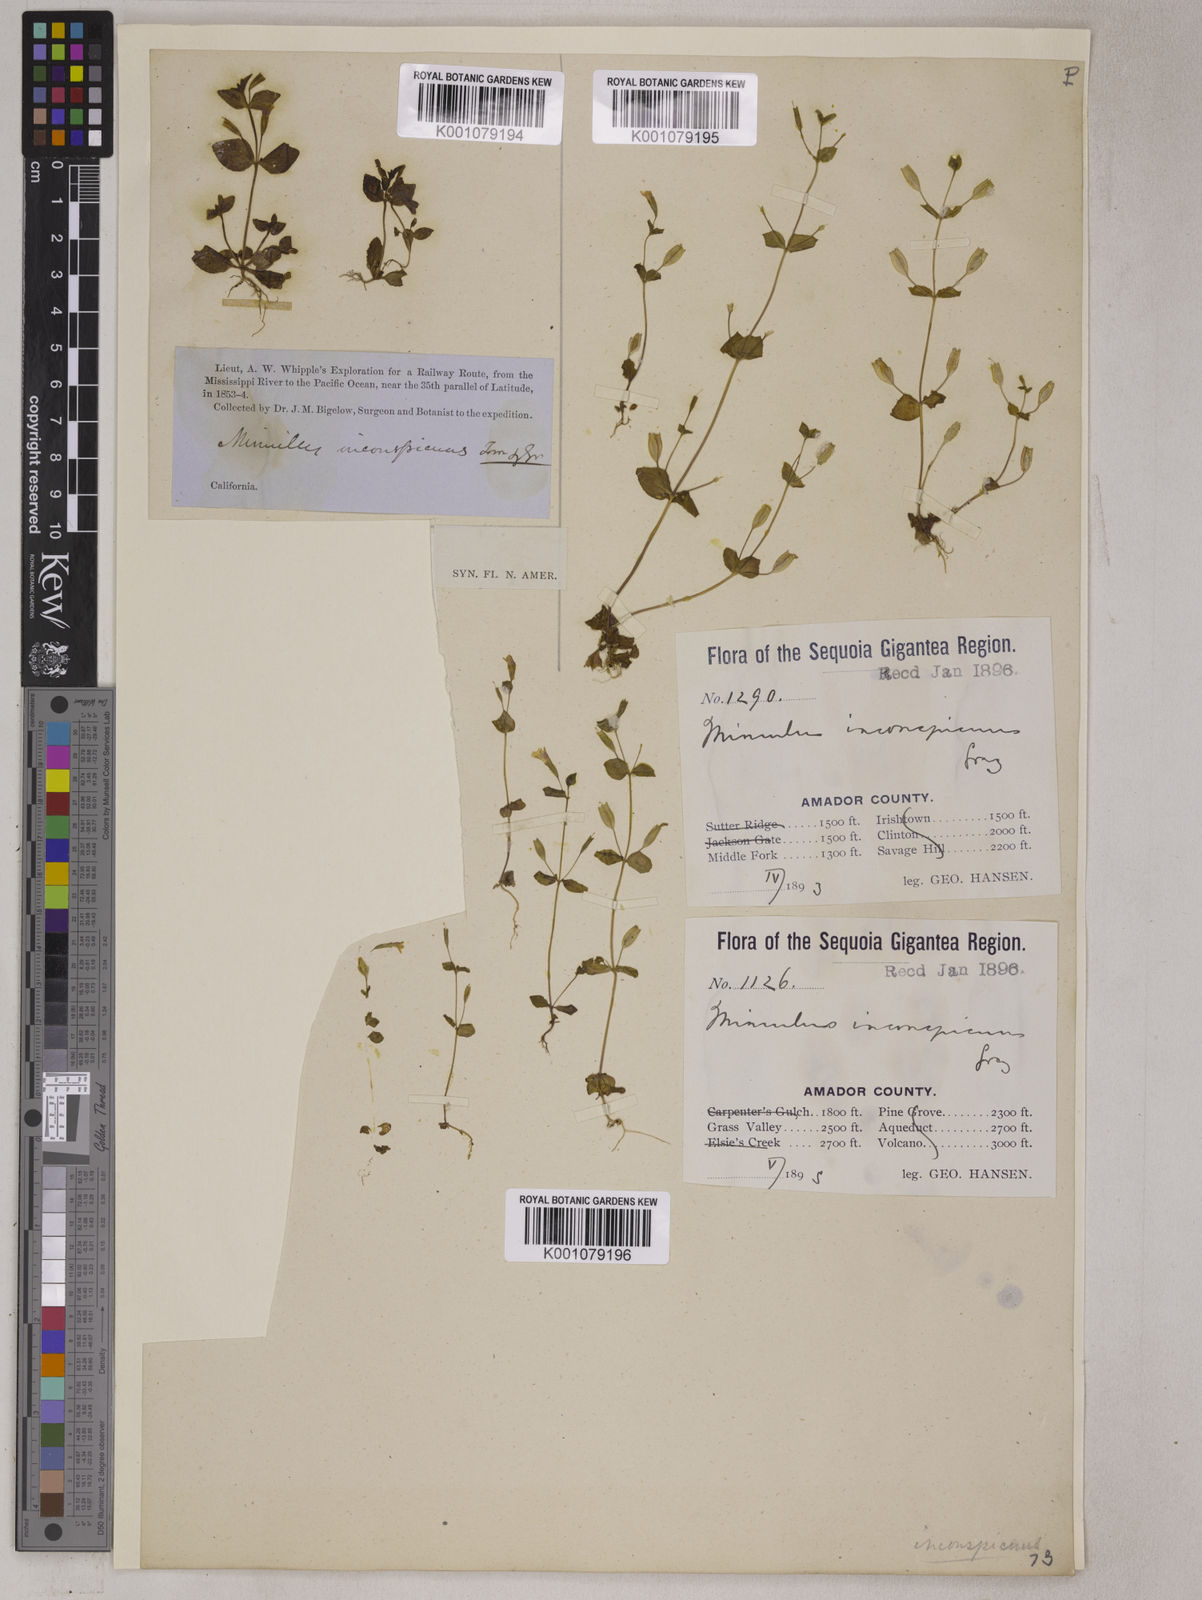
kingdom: Plantae
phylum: Tracheophyta
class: Magnoliopsida
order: Lamiales
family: Phrymaceae
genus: Erythranthe
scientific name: Erythranthe inconspicua
